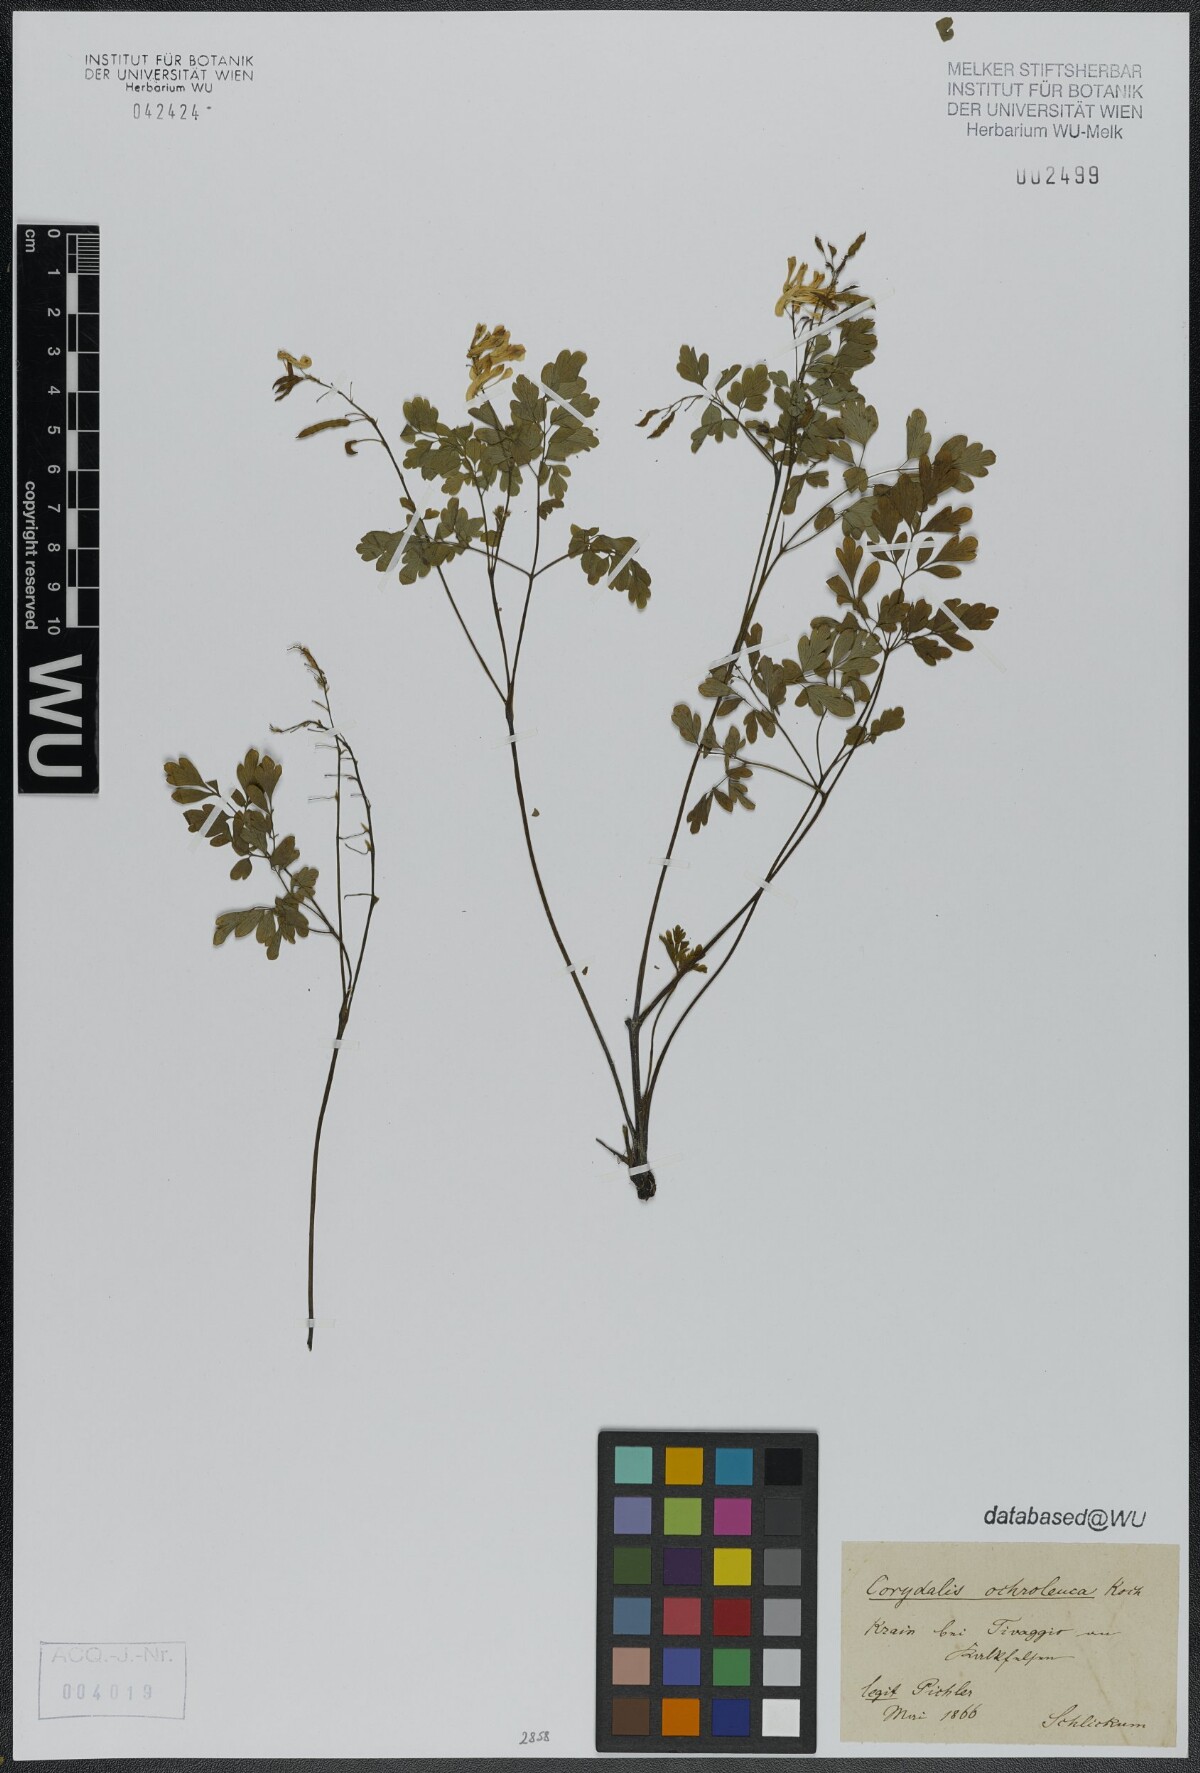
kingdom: Plantae
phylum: Tracheophyta
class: Magnoliopsida
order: Ranunculales
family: Papaveraceae
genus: Pseudofumaria
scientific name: Pseudofumaria alba
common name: Pale corydalis
